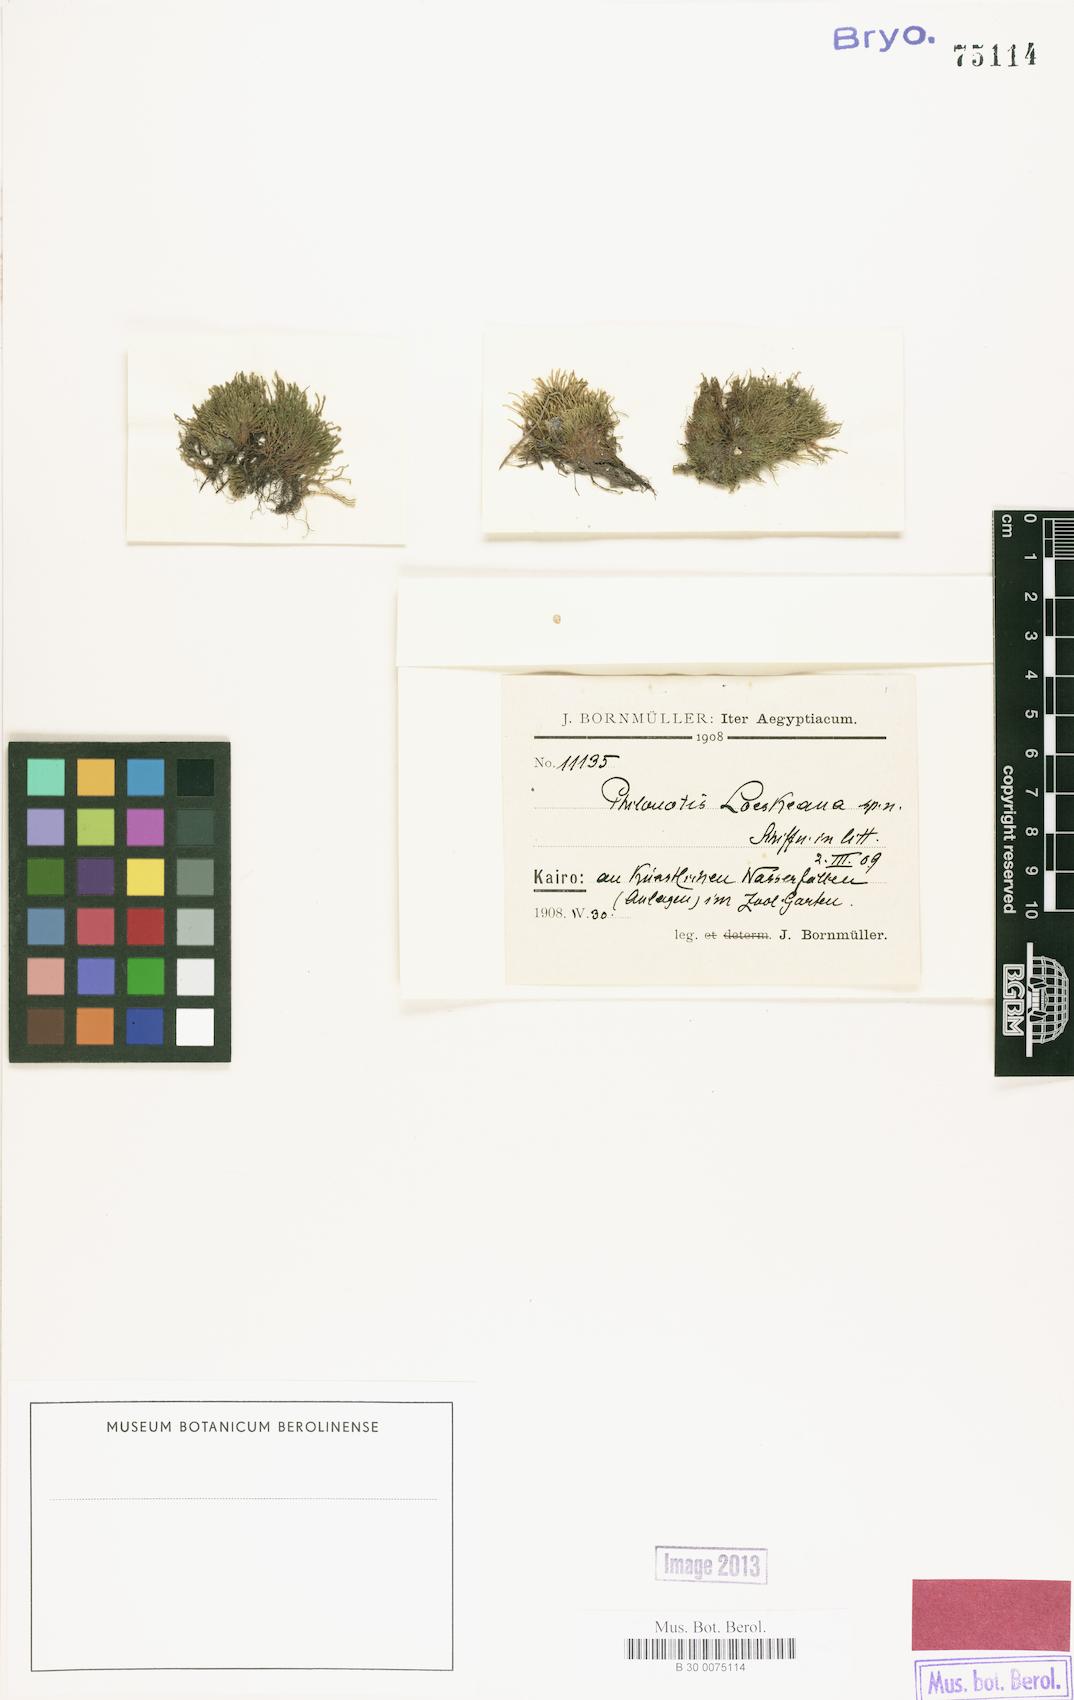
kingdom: Plantae
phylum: Bryophyta
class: Bryopsida
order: Bartramiales
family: Bartramiaceae
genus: Philonotis
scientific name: Philonotis
